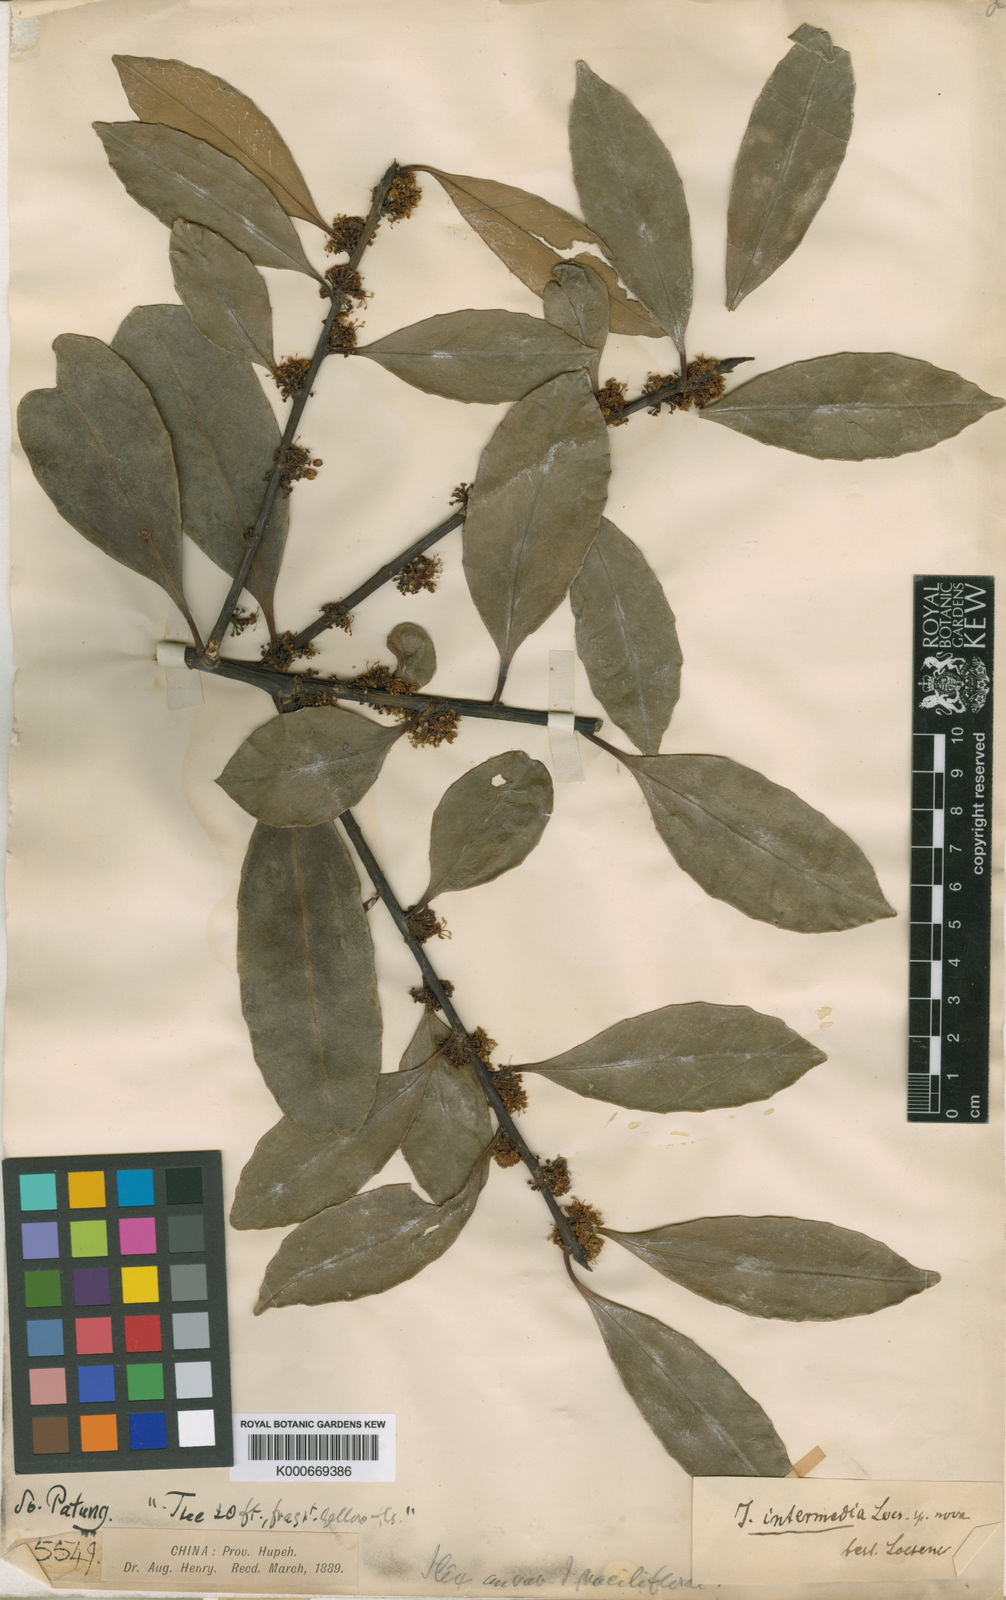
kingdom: Plantae
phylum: Tracheophyta
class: Magnoliopsida
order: Aquifoliales
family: Aquifoliaceae
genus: Ilex
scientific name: Ilex intermedia
